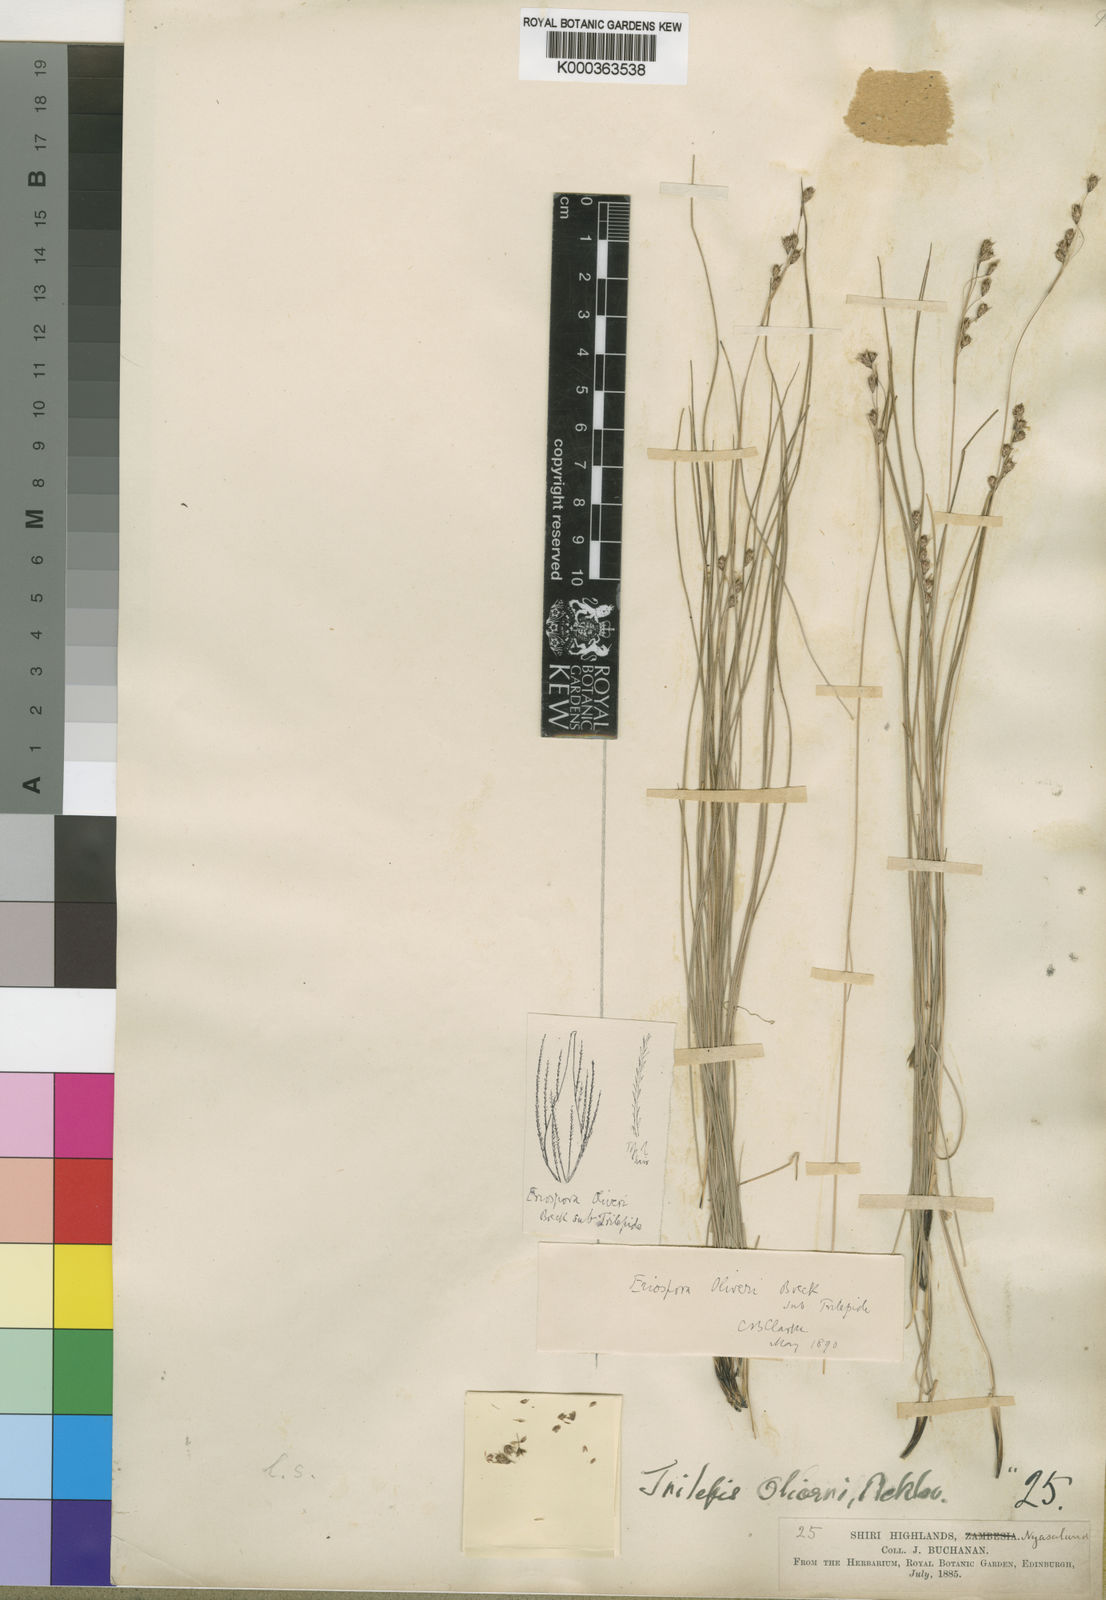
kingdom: Plantae
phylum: Tracheophyta
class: Liliopsida
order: Poales
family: Cyperaceae
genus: Coleochloa
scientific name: Coleochloa setifera
